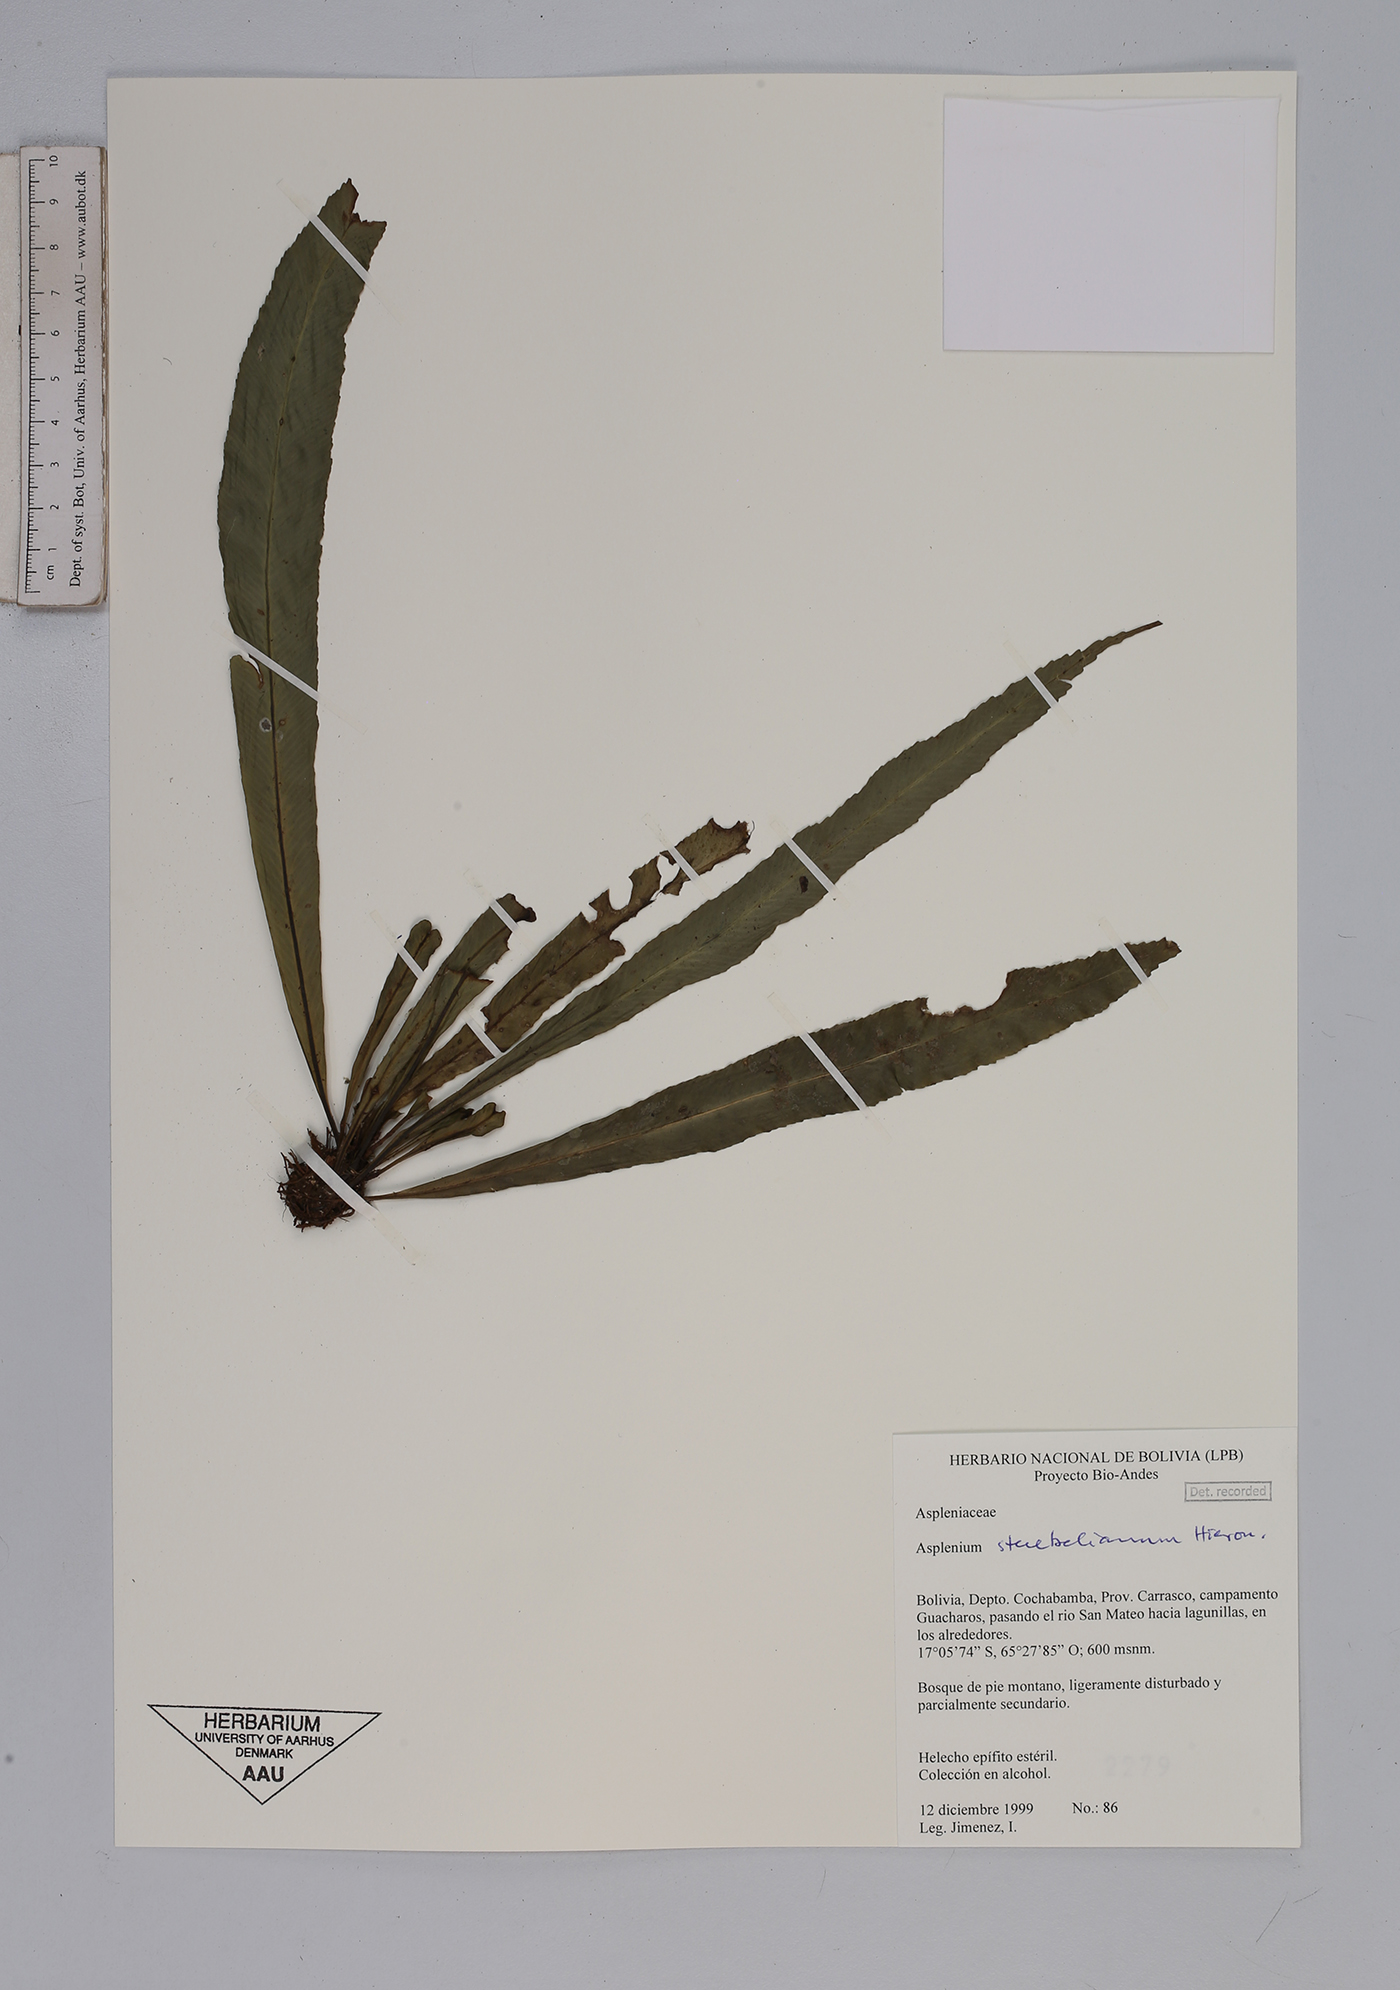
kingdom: Plantae
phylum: Tracheophyta
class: Polypodiopsida
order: Polypodiales
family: Aspleniaceae
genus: Asplenium
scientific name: Asplenium stuebelianum
